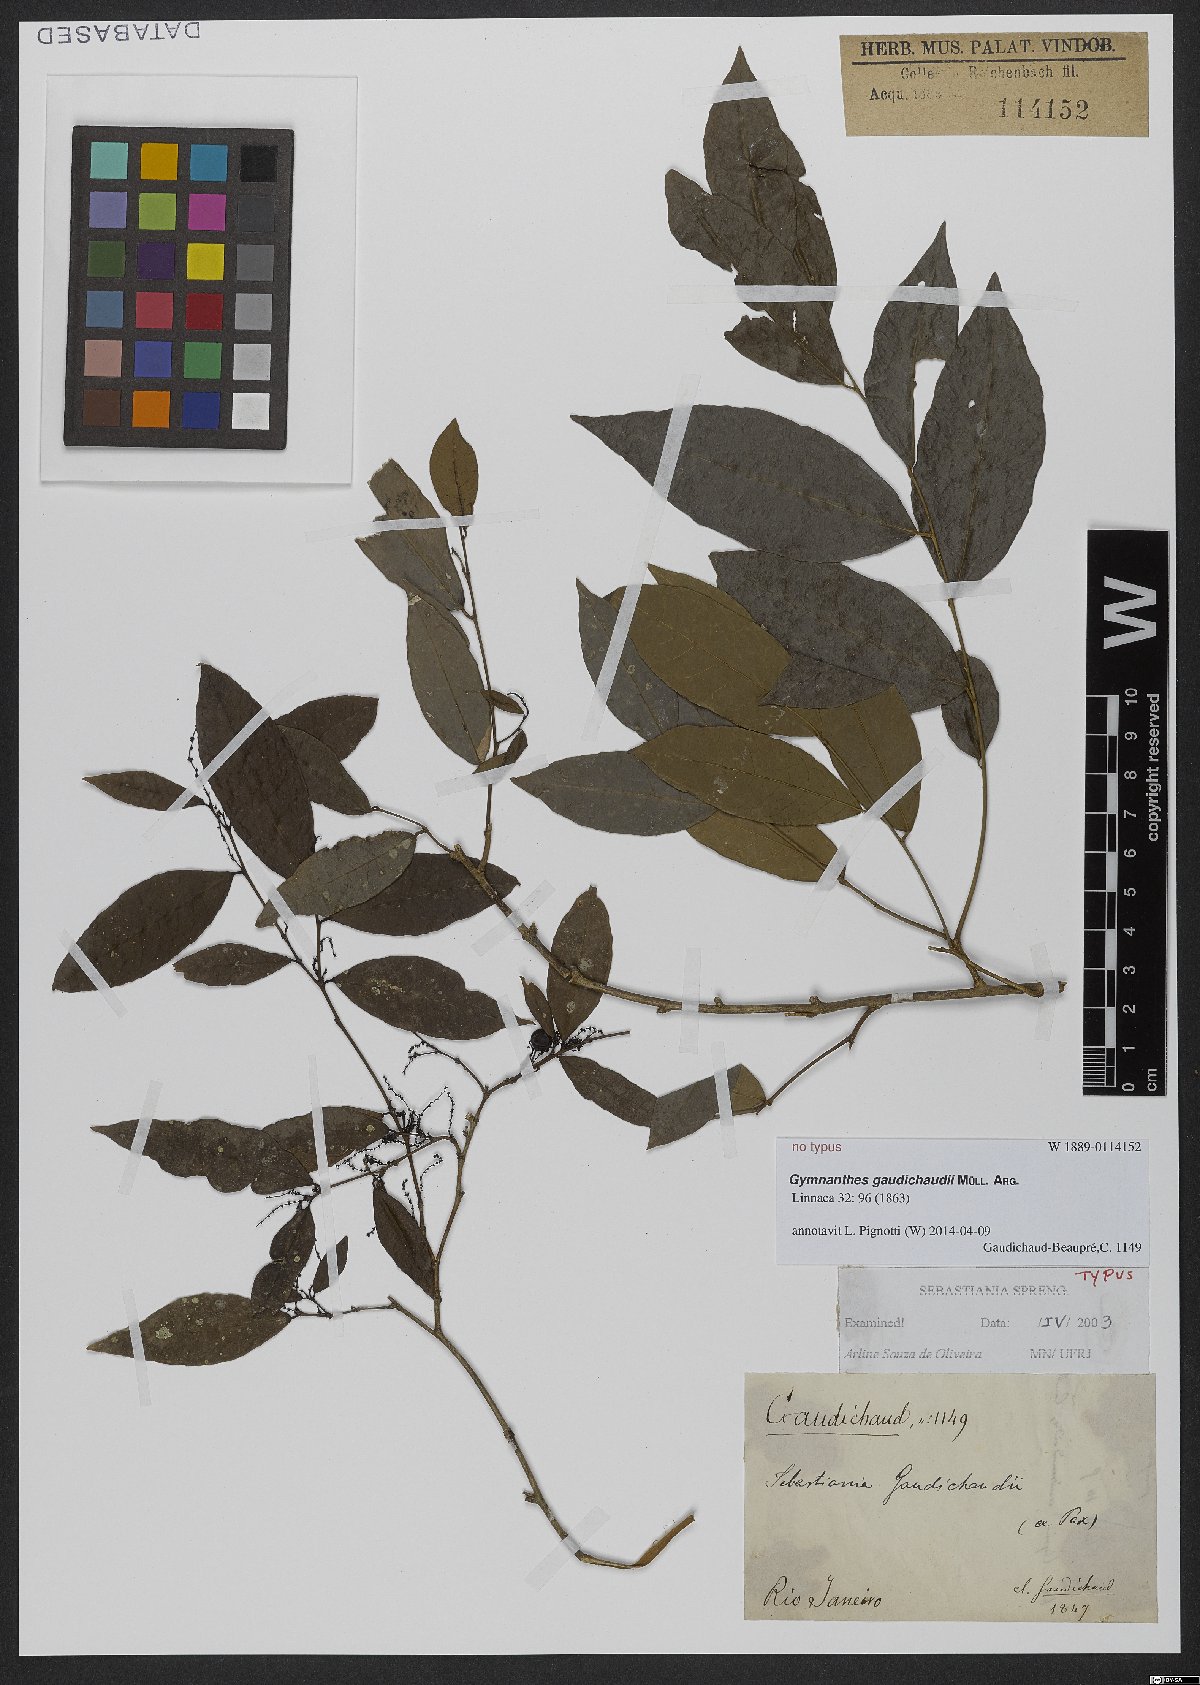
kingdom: Plantae
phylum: Tracheophyta
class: Magnoliopsida
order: Malpighiales
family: Euphorbiaceae
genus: Gymnanthes
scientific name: Gymnanthes gaudichaudii
